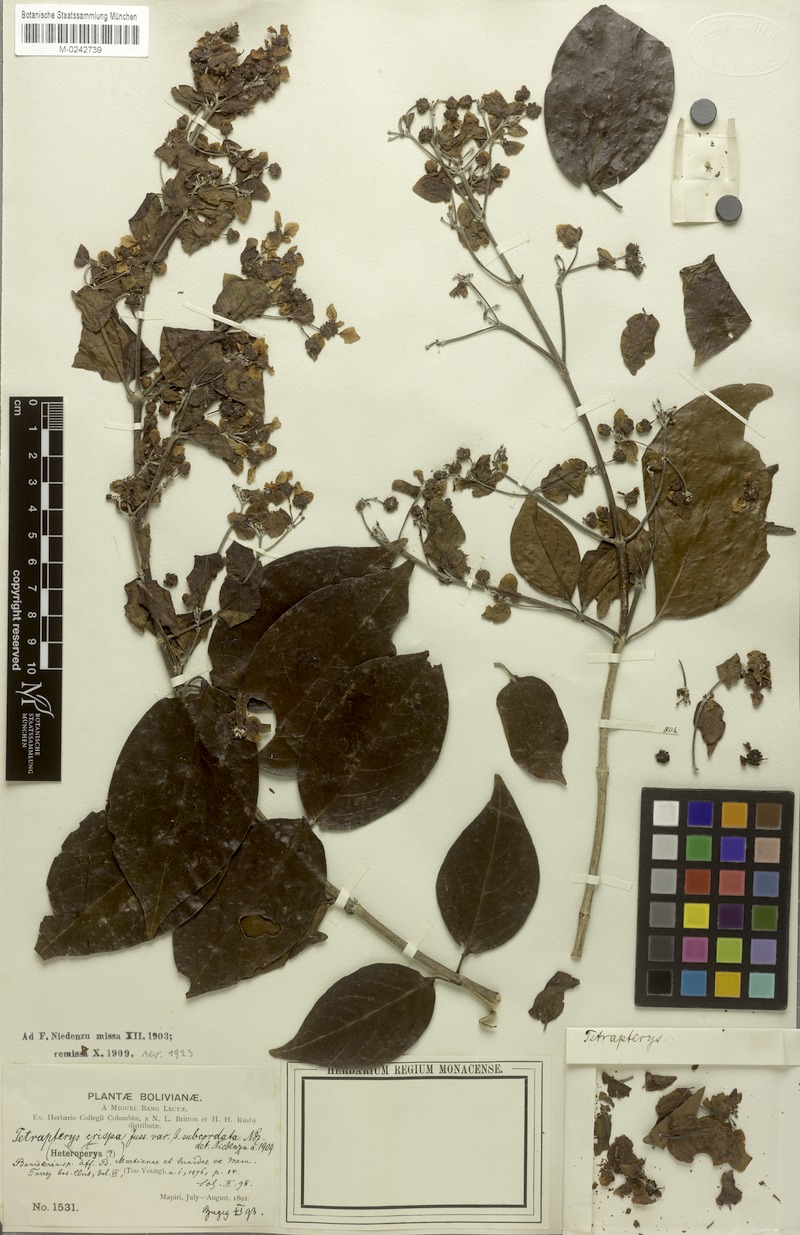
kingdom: Plantae
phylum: Tracheophyta
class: Magnoliopsida
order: Malpighiales
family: Malpighiaceae
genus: Tetrapterys
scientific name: Tetrapterys crispa
